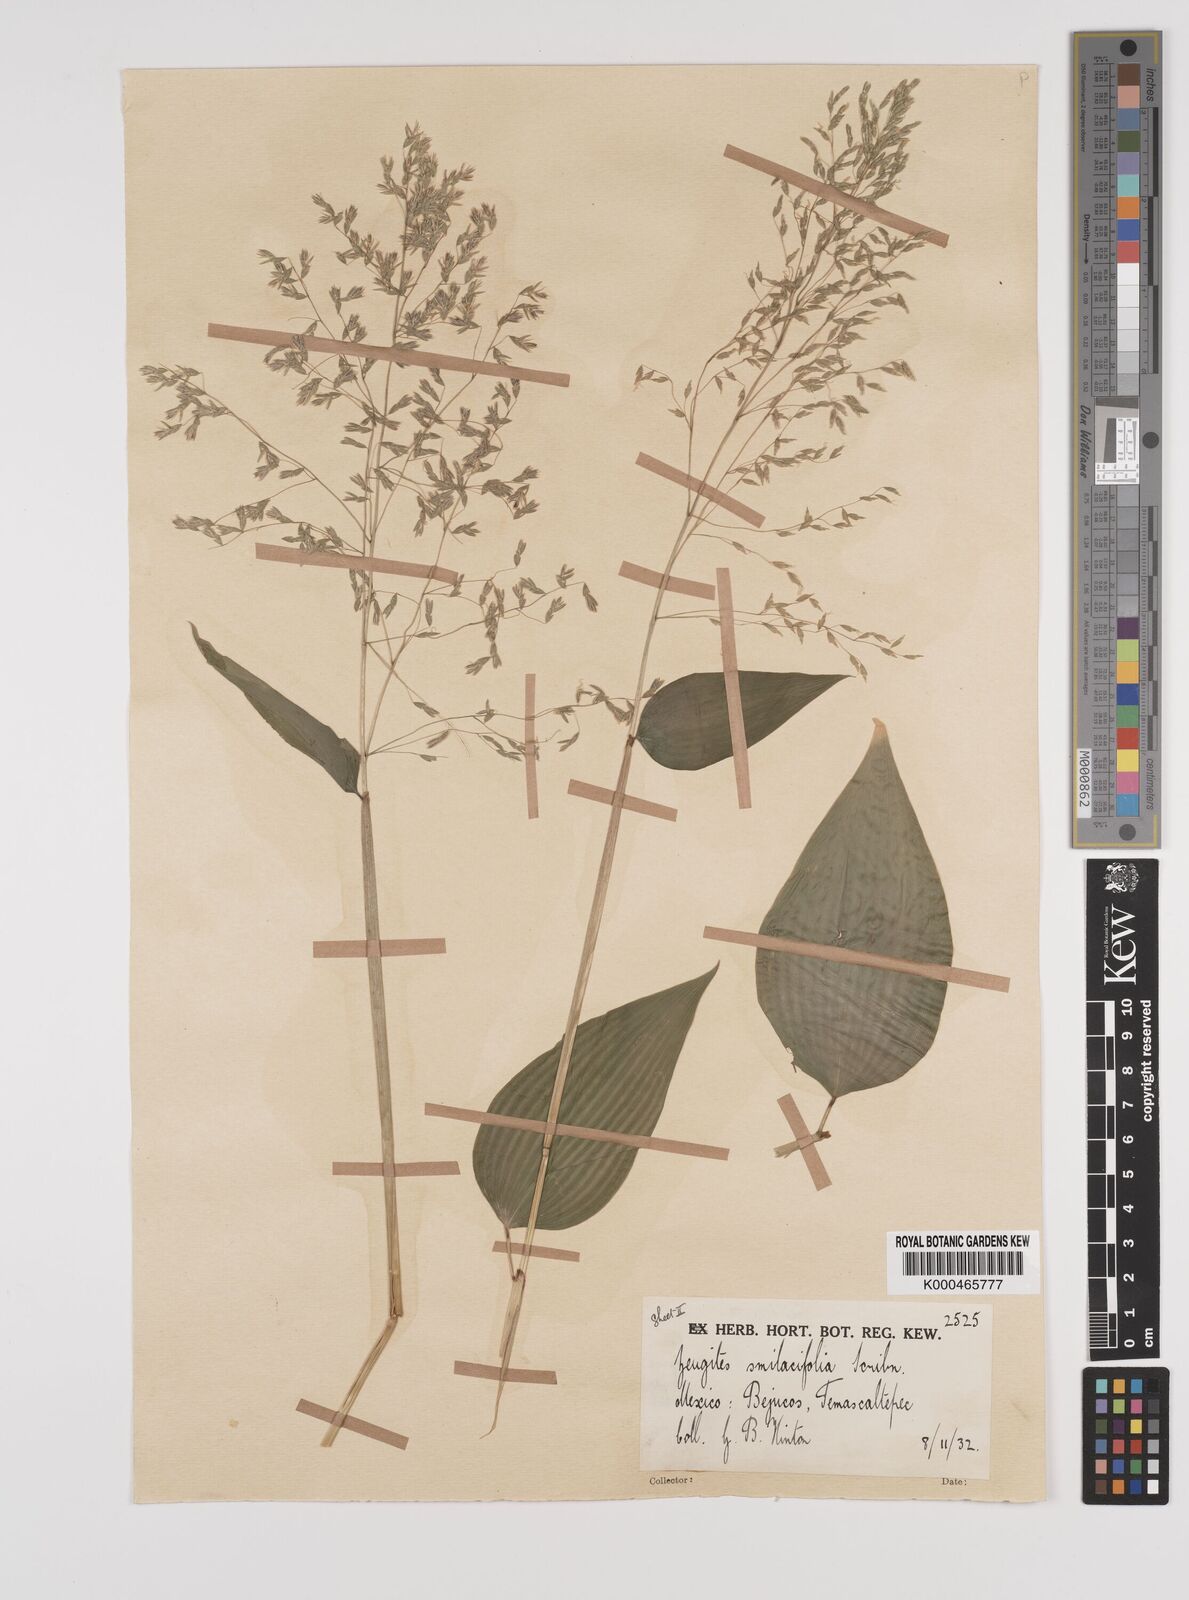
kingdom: Plantae
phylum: Tracheophyta
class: Liliopsida
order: Poales
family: Poaceae
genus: Zeugites
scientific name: Zeugites smilacifolius
